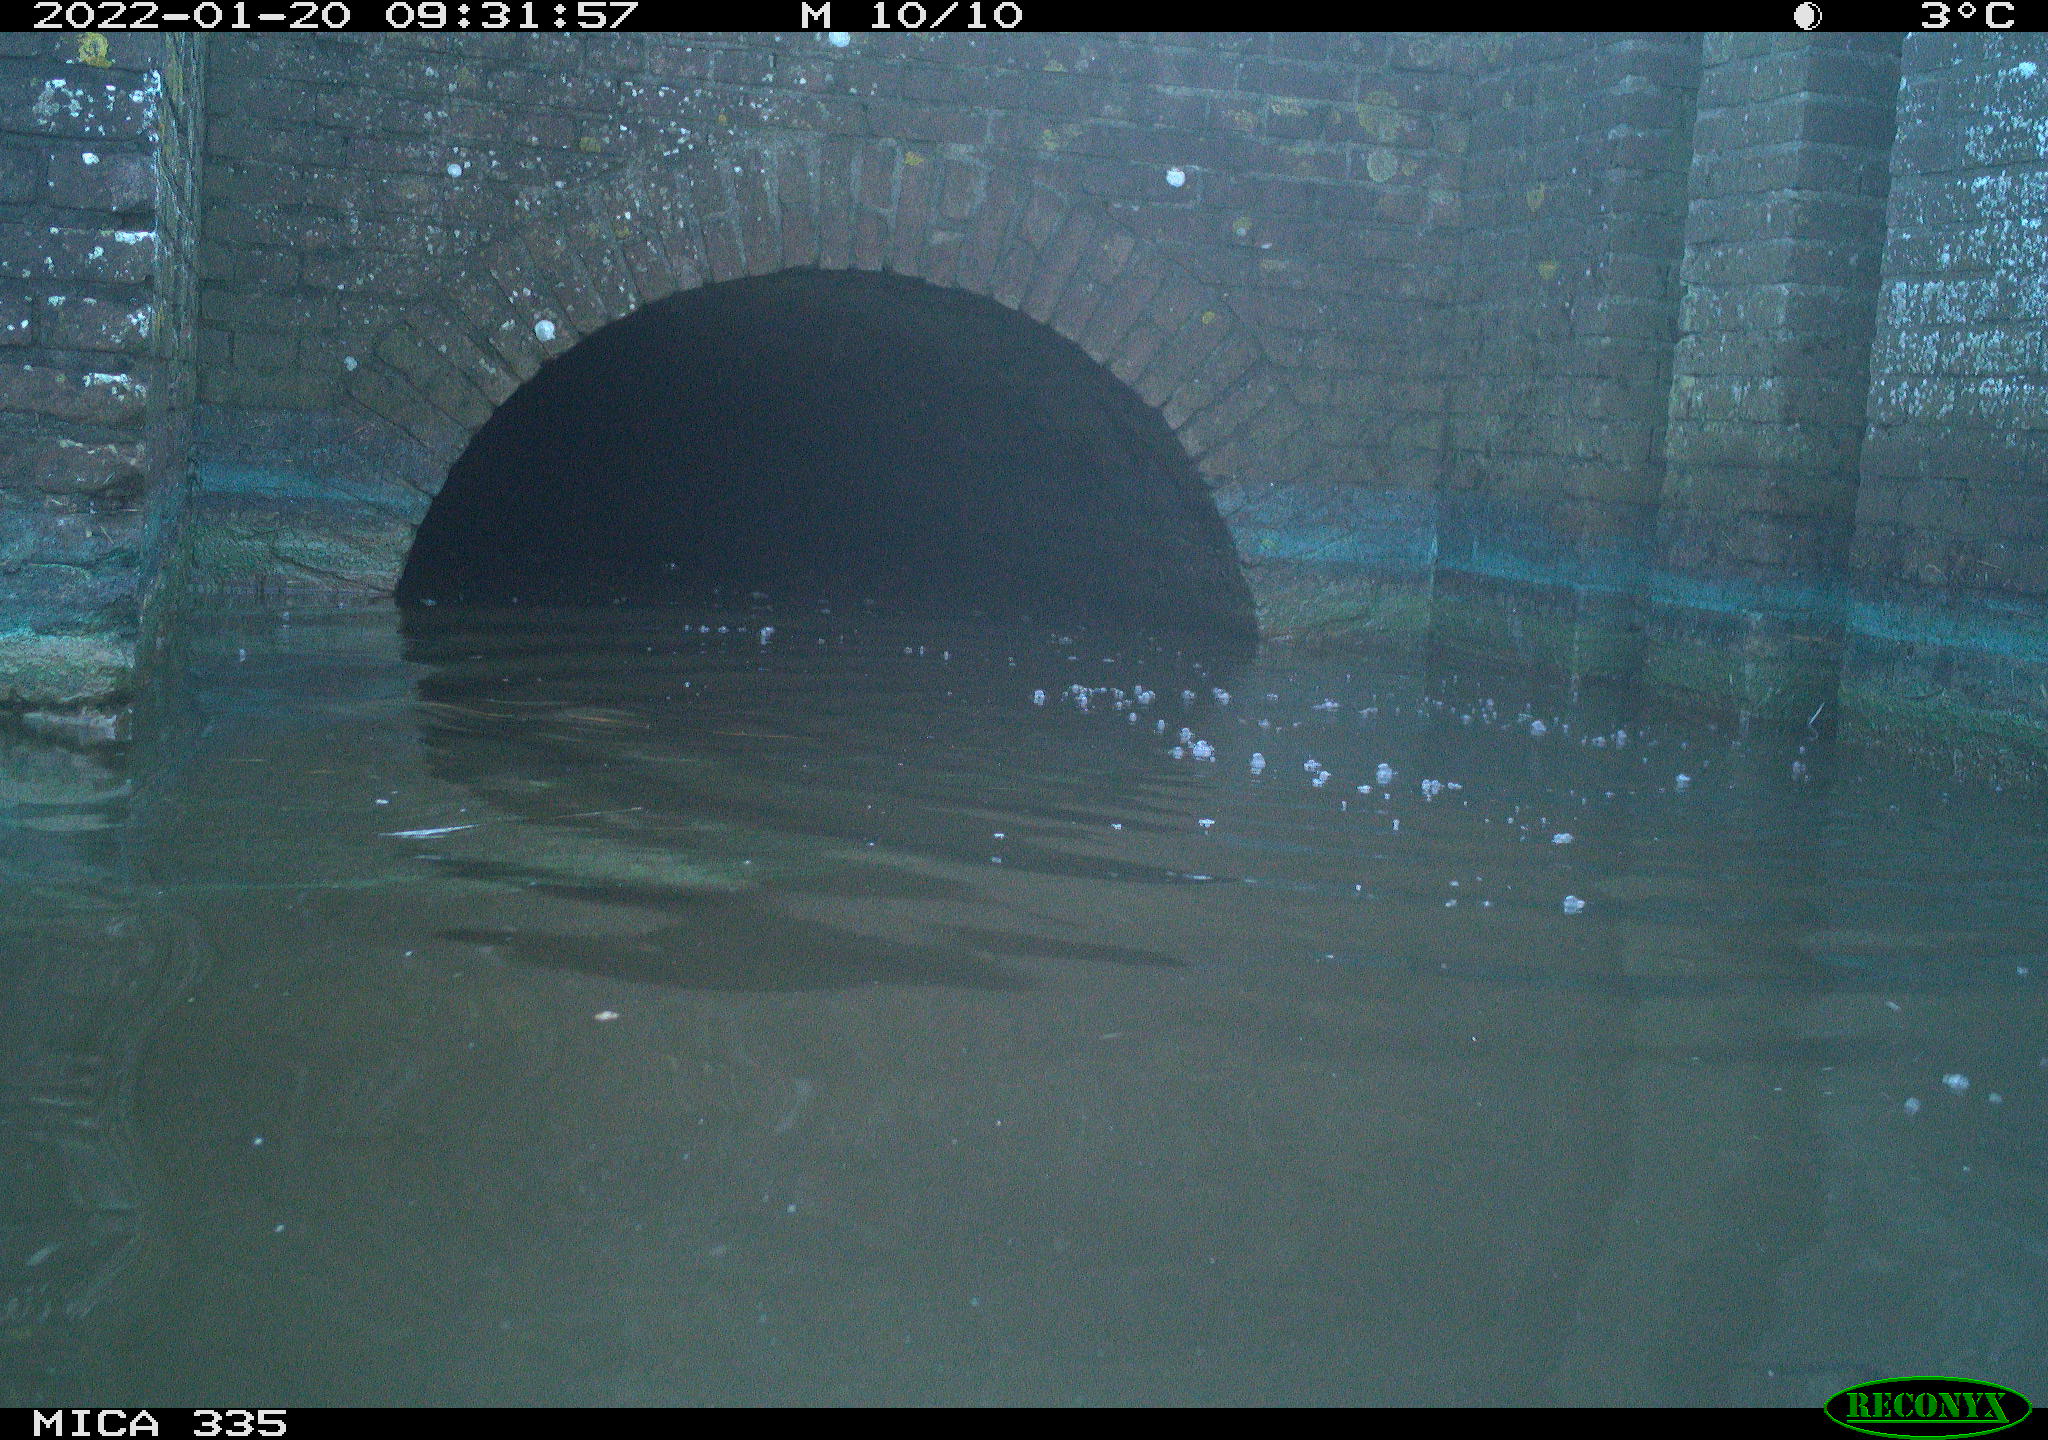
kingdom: Animalia
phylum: Chordata
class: Aves
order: Suliformes
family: Phalacrocoracidae
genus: Phalacrocorax
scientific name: Phalacrocorax carbo
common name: Great cormorant
